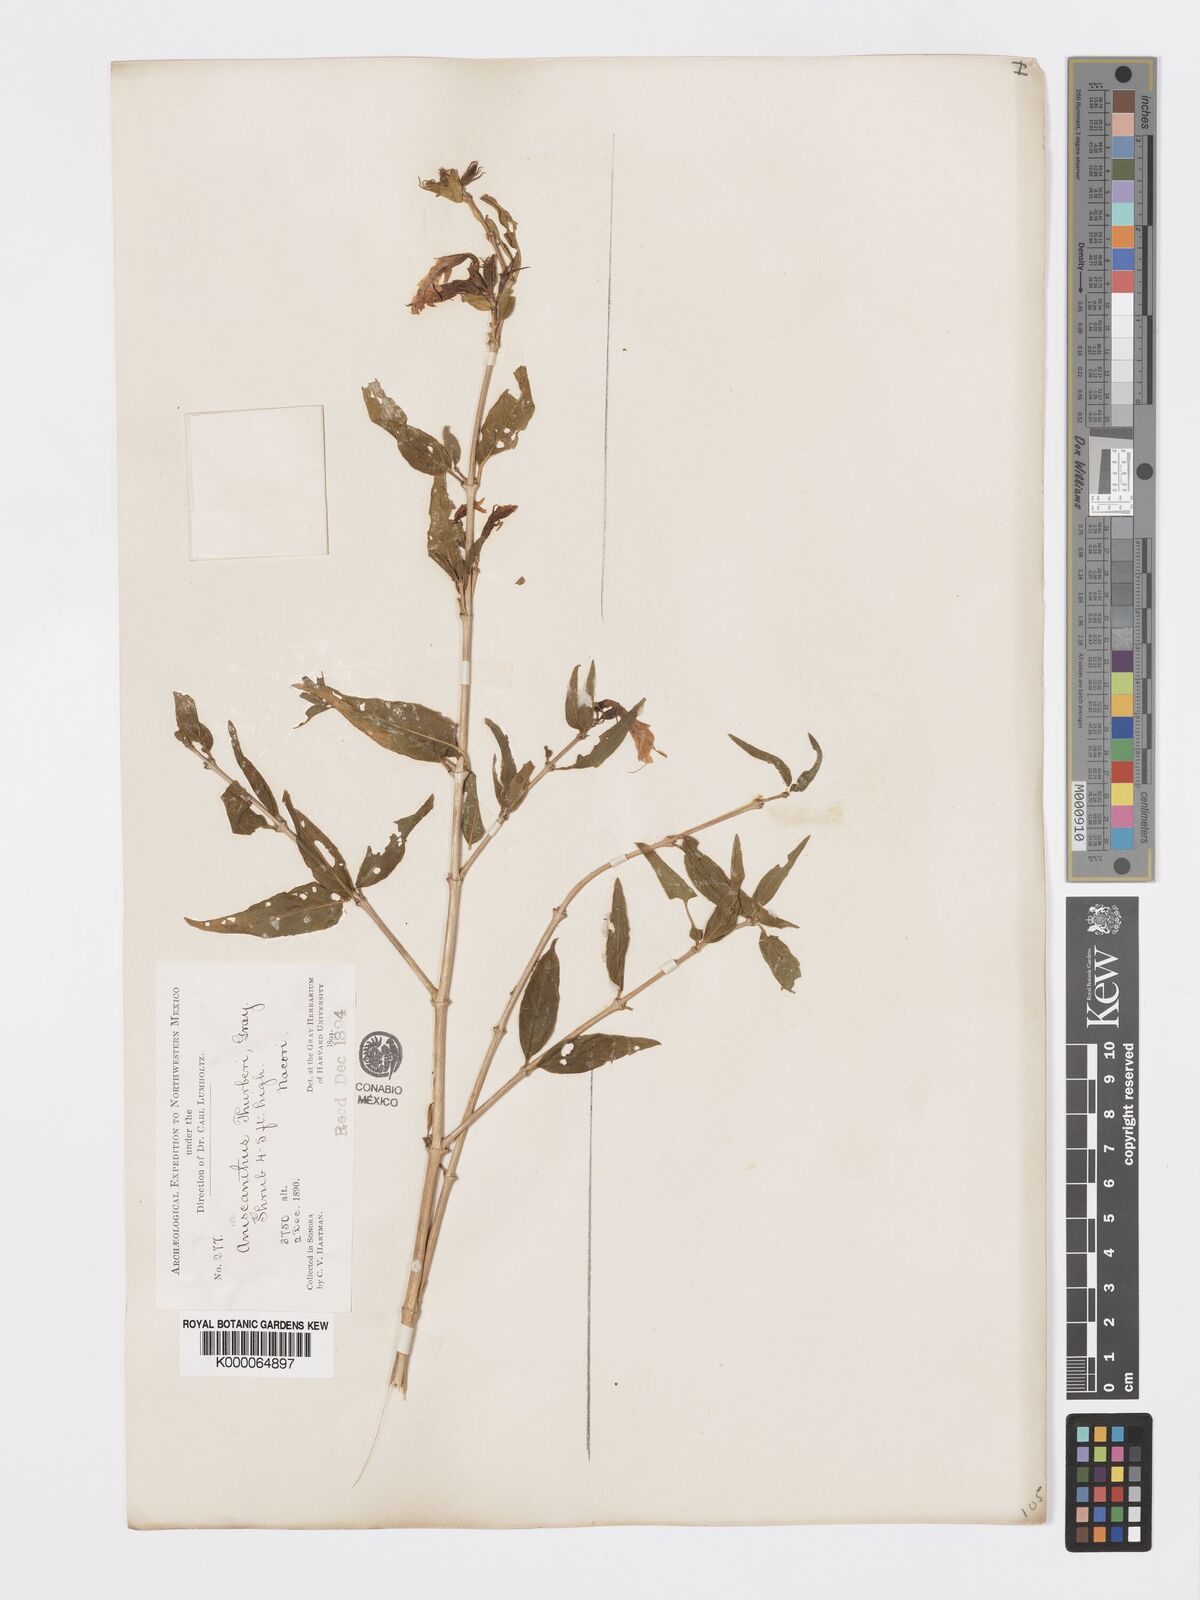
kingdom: Plantae
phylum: Tracheophyta
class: Magnoliopsida
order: Lamiales
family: Acanthaceae
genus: Anisacanthus
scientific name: Anisacanthus thurberi
